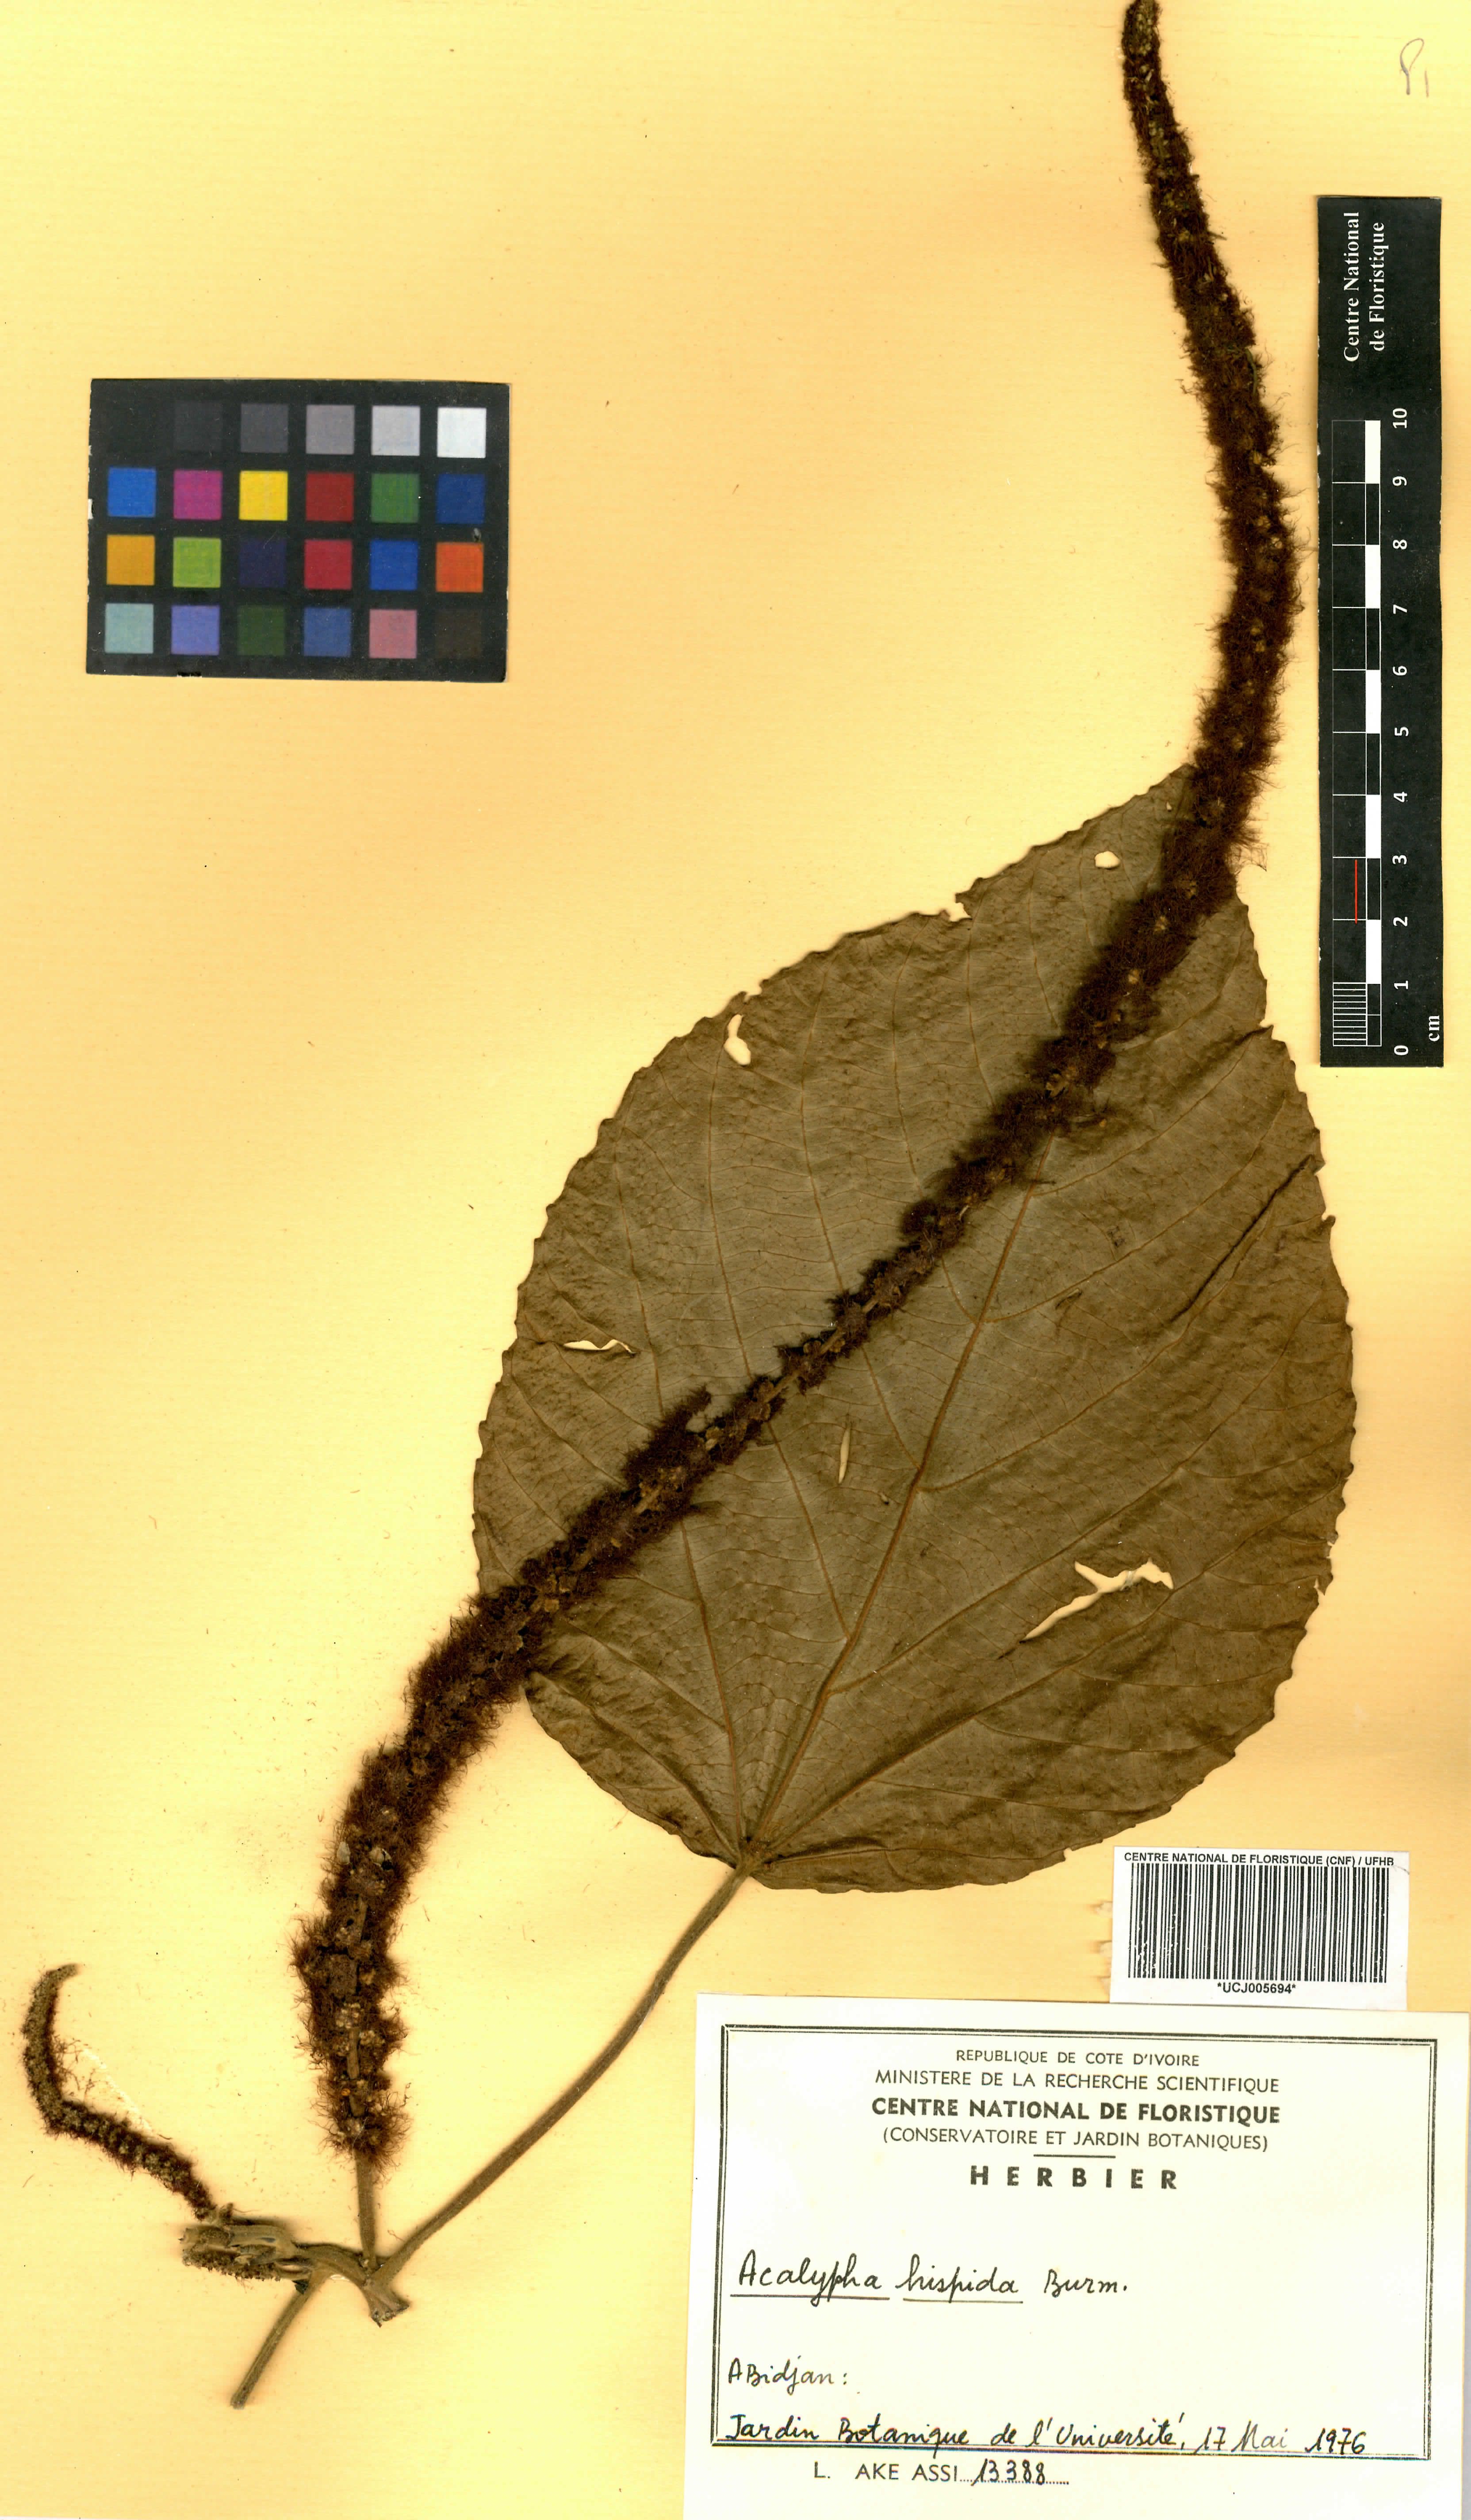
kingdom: Plantae
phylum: Tracheophyta
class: Magnoliopsida
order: Malpighiales
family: Euphorbiaceae
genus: Acalypha
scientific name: Acalypha hispida
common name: Chenilleplant
